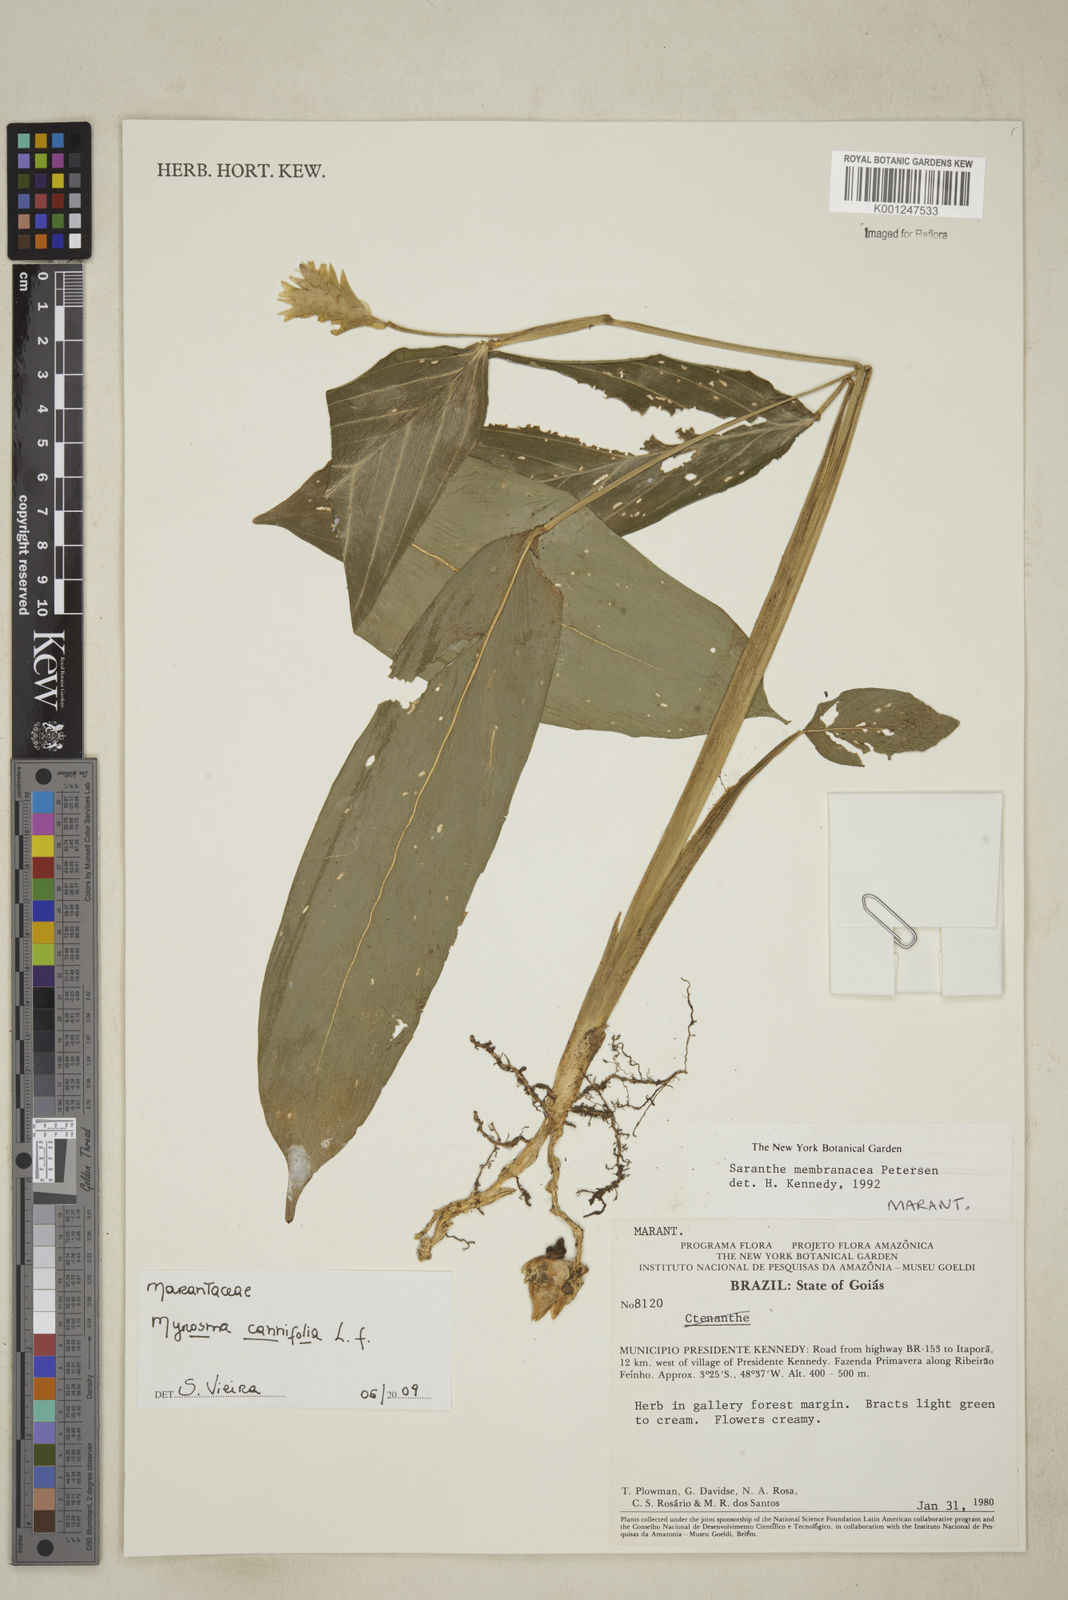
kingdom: Plantae
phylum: Tracheophyta
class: Liliopsida
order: Zingiberales
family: Marantaceae
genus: Myrosma
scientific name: Myrosma cannifolia
